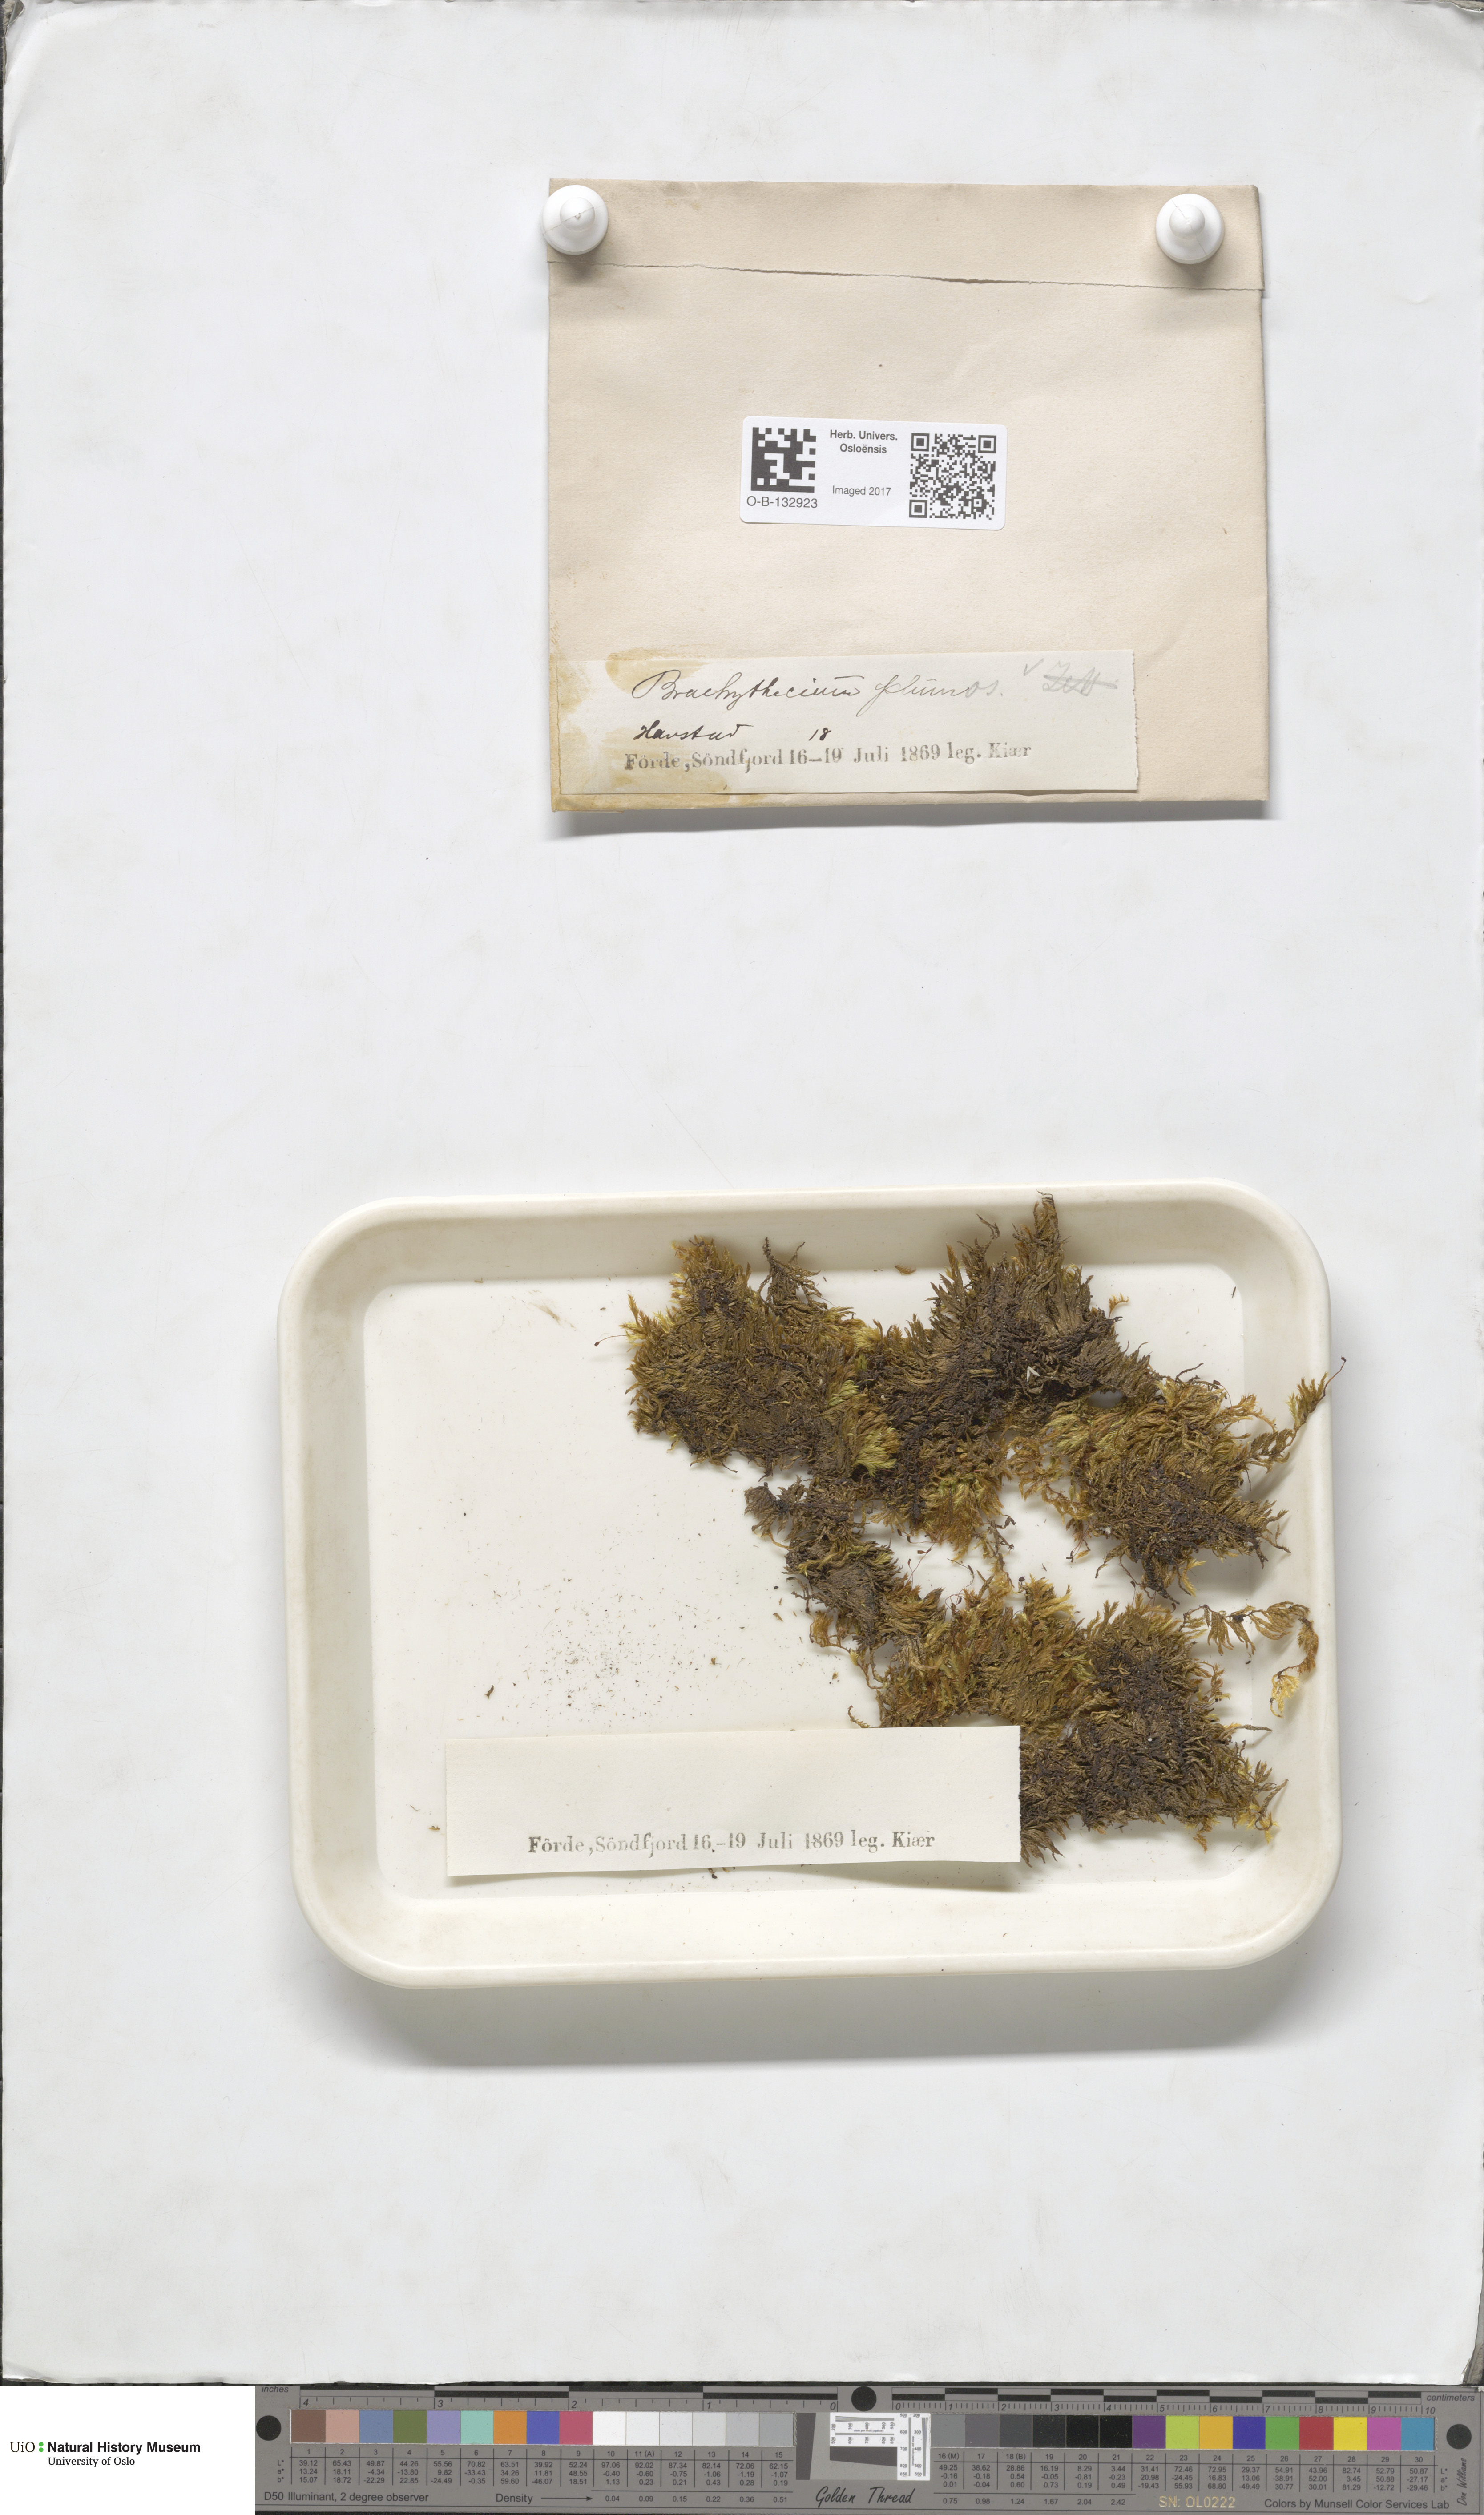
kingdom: Plantae
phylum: Bryophyta
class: Bryopsida
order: Hypnales
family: Brachytheciaceae
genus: Sciuro-hypnum
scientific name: Sciuro-hypnum plumosum
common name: Rusty feather-moss
